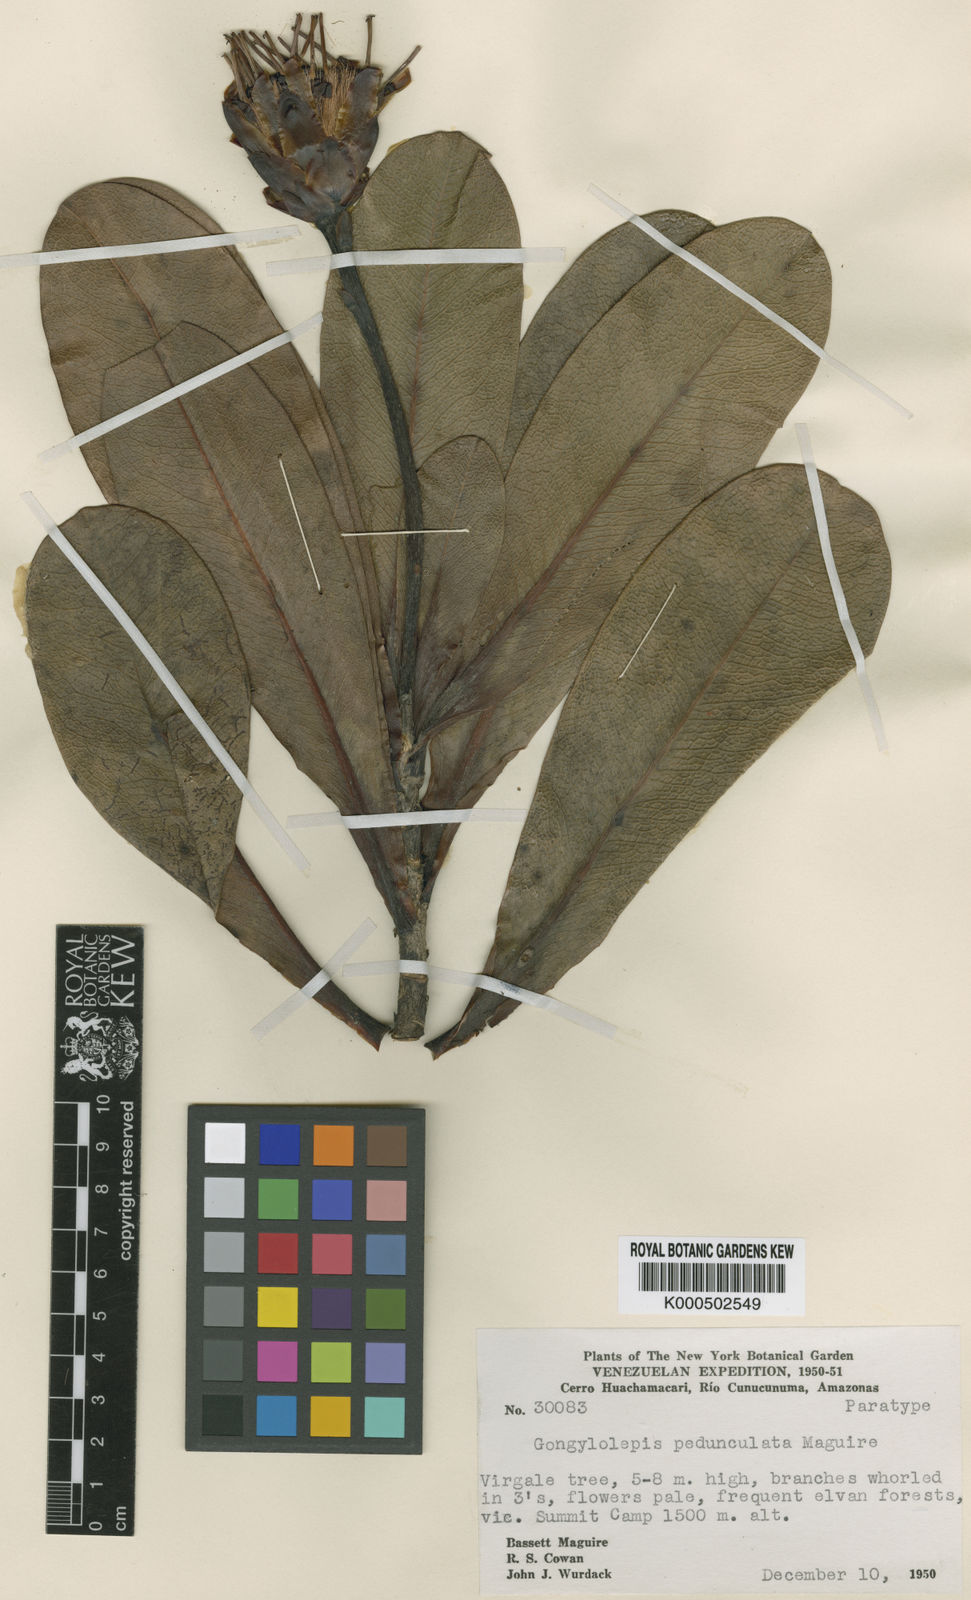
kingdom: Plantae
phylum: Tracheophyta
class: Magnoliopsida
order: Asterales
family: Asteraceae
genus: Gongylolepis
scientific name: Gongylolepis pedunculata
